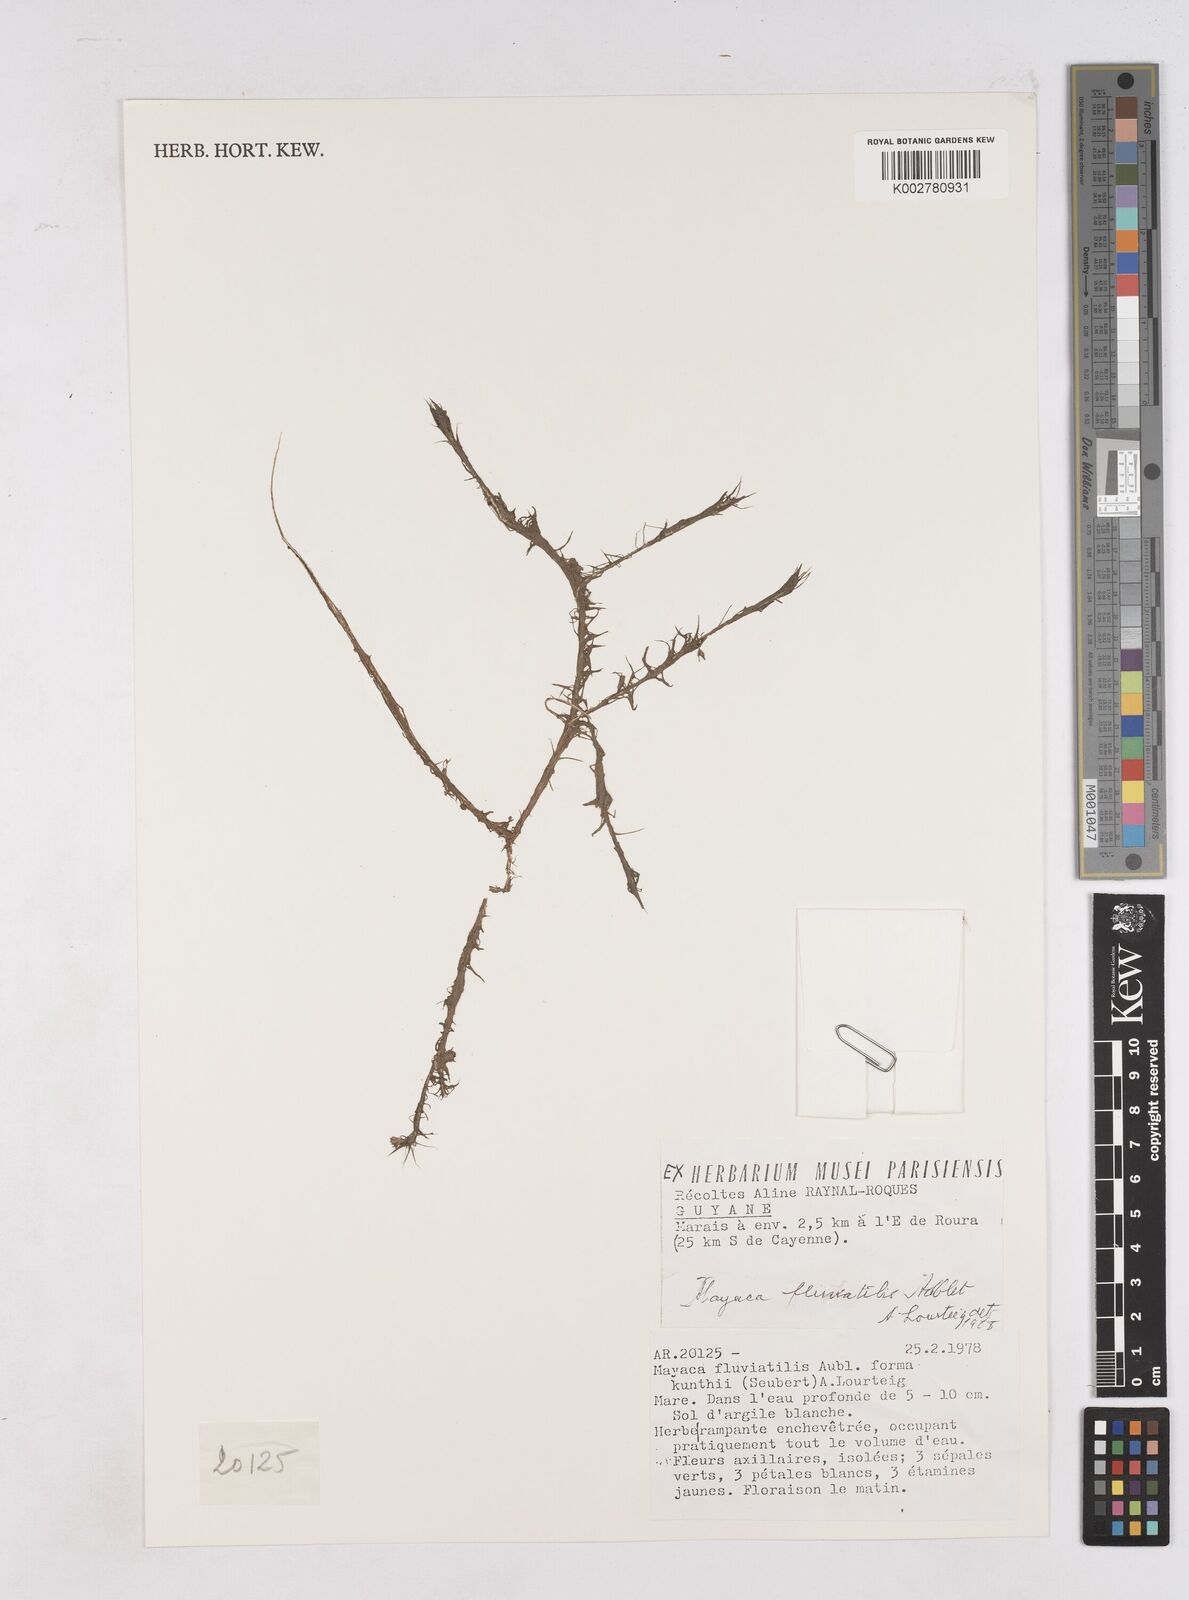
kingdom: Plantae
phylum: Tracheophyta
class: Liliopsida
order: Poales
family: Mayacaceae
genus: Mayaca
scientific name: Mayaca fluviatilis
